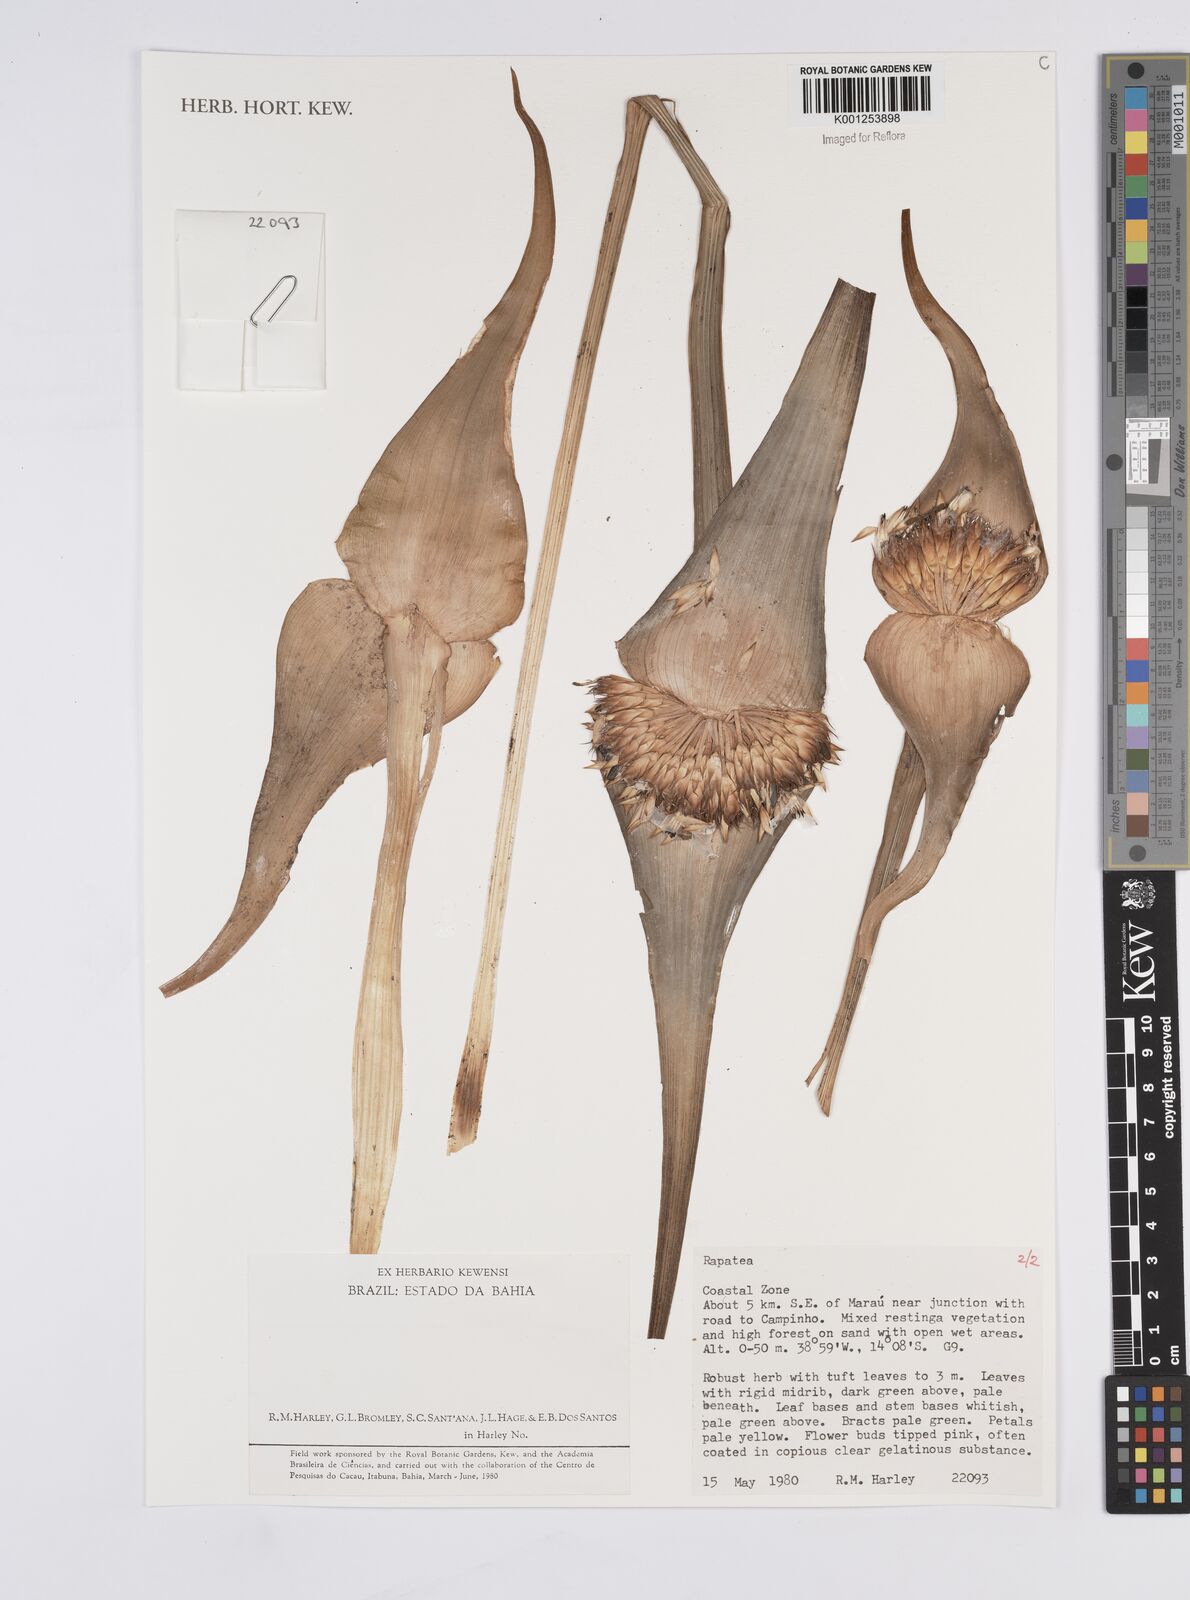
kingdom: Plantae
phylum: Tracheophyta
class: Liliopsida
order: Poales
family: Rapateaceae
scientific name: Rapateaceae
